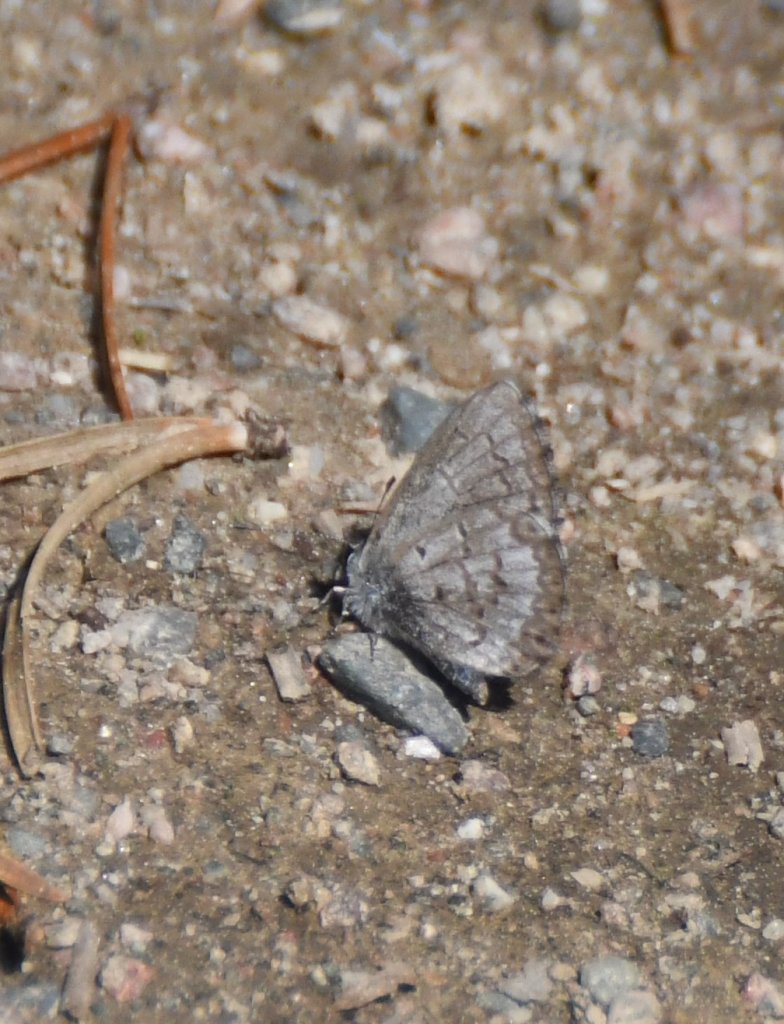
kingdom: Animalia
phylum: Arthropoda
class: Insecta
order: Lepidoptera
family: Lycaenidae
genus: Celastrina
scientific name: Celastrina lucia
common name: Northern Spring Azure
